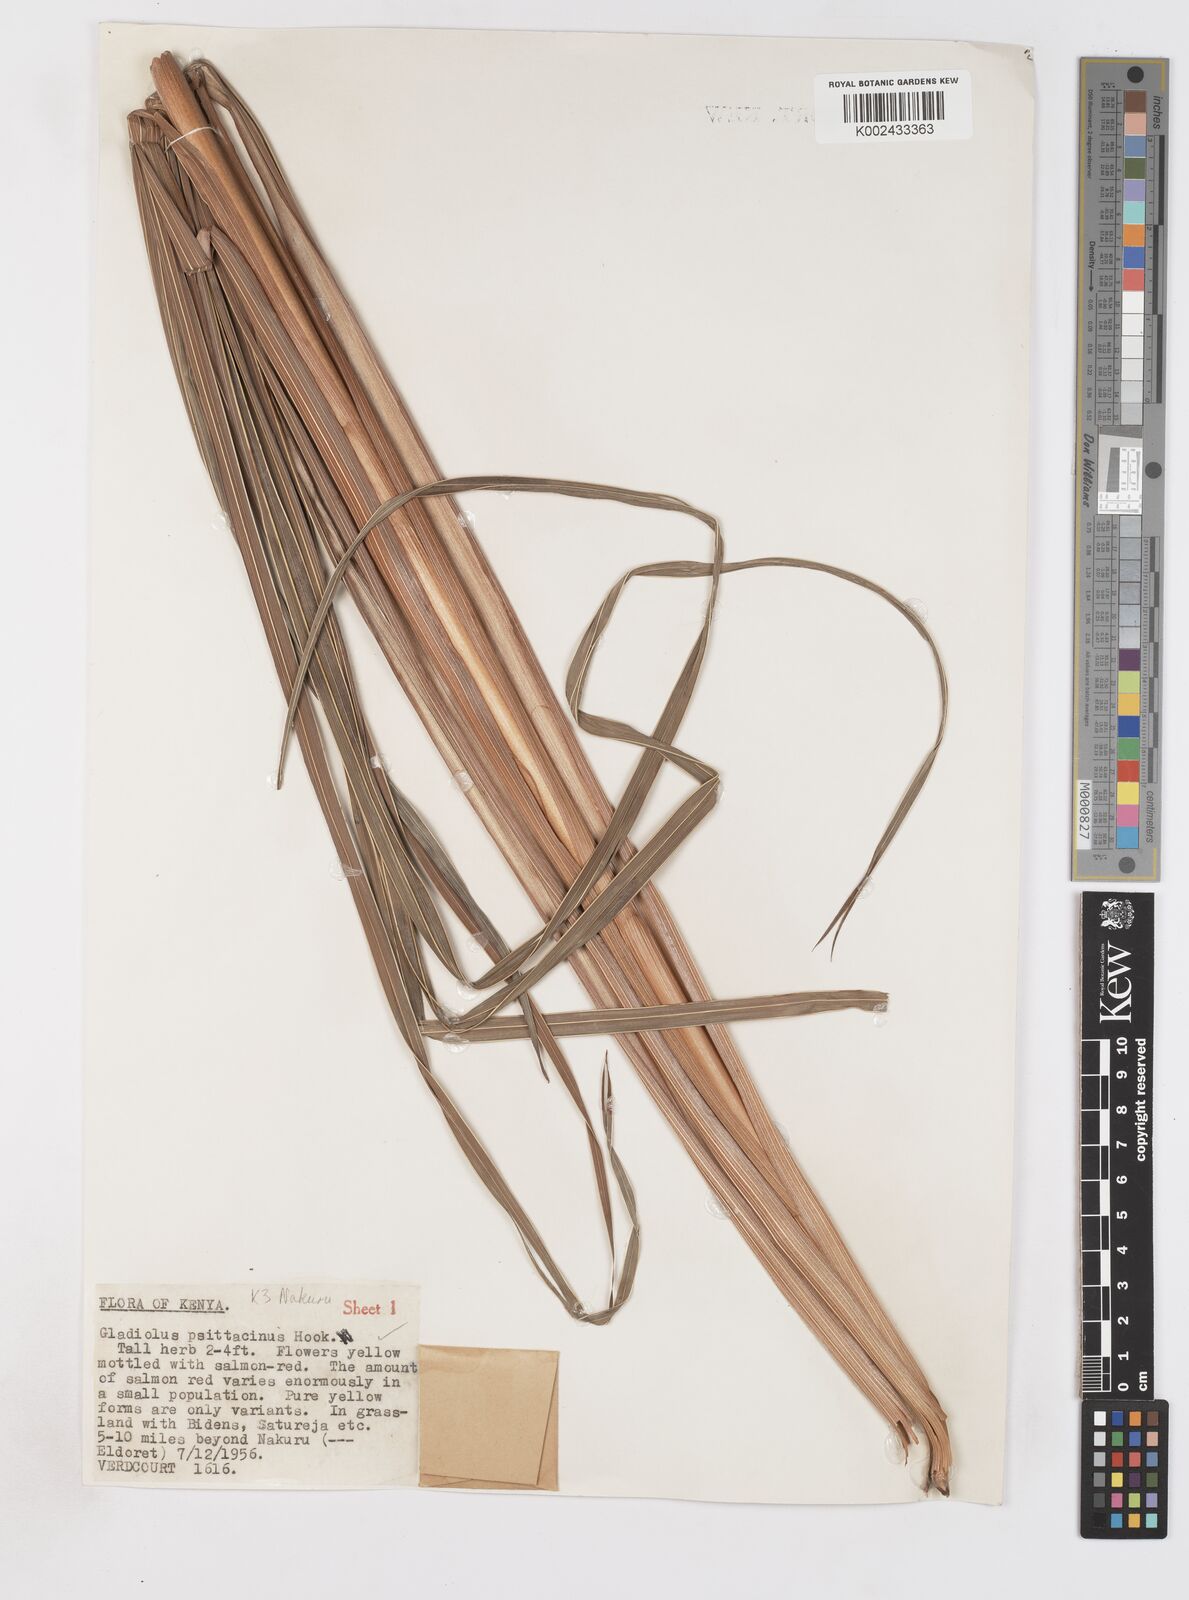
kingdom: Plantae
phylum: Tracheophyta
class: Liliopsida
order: Asparagales
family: Iridaceae
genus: Gladiolus
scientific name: Gladiolus dalenii
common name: Cornflag
